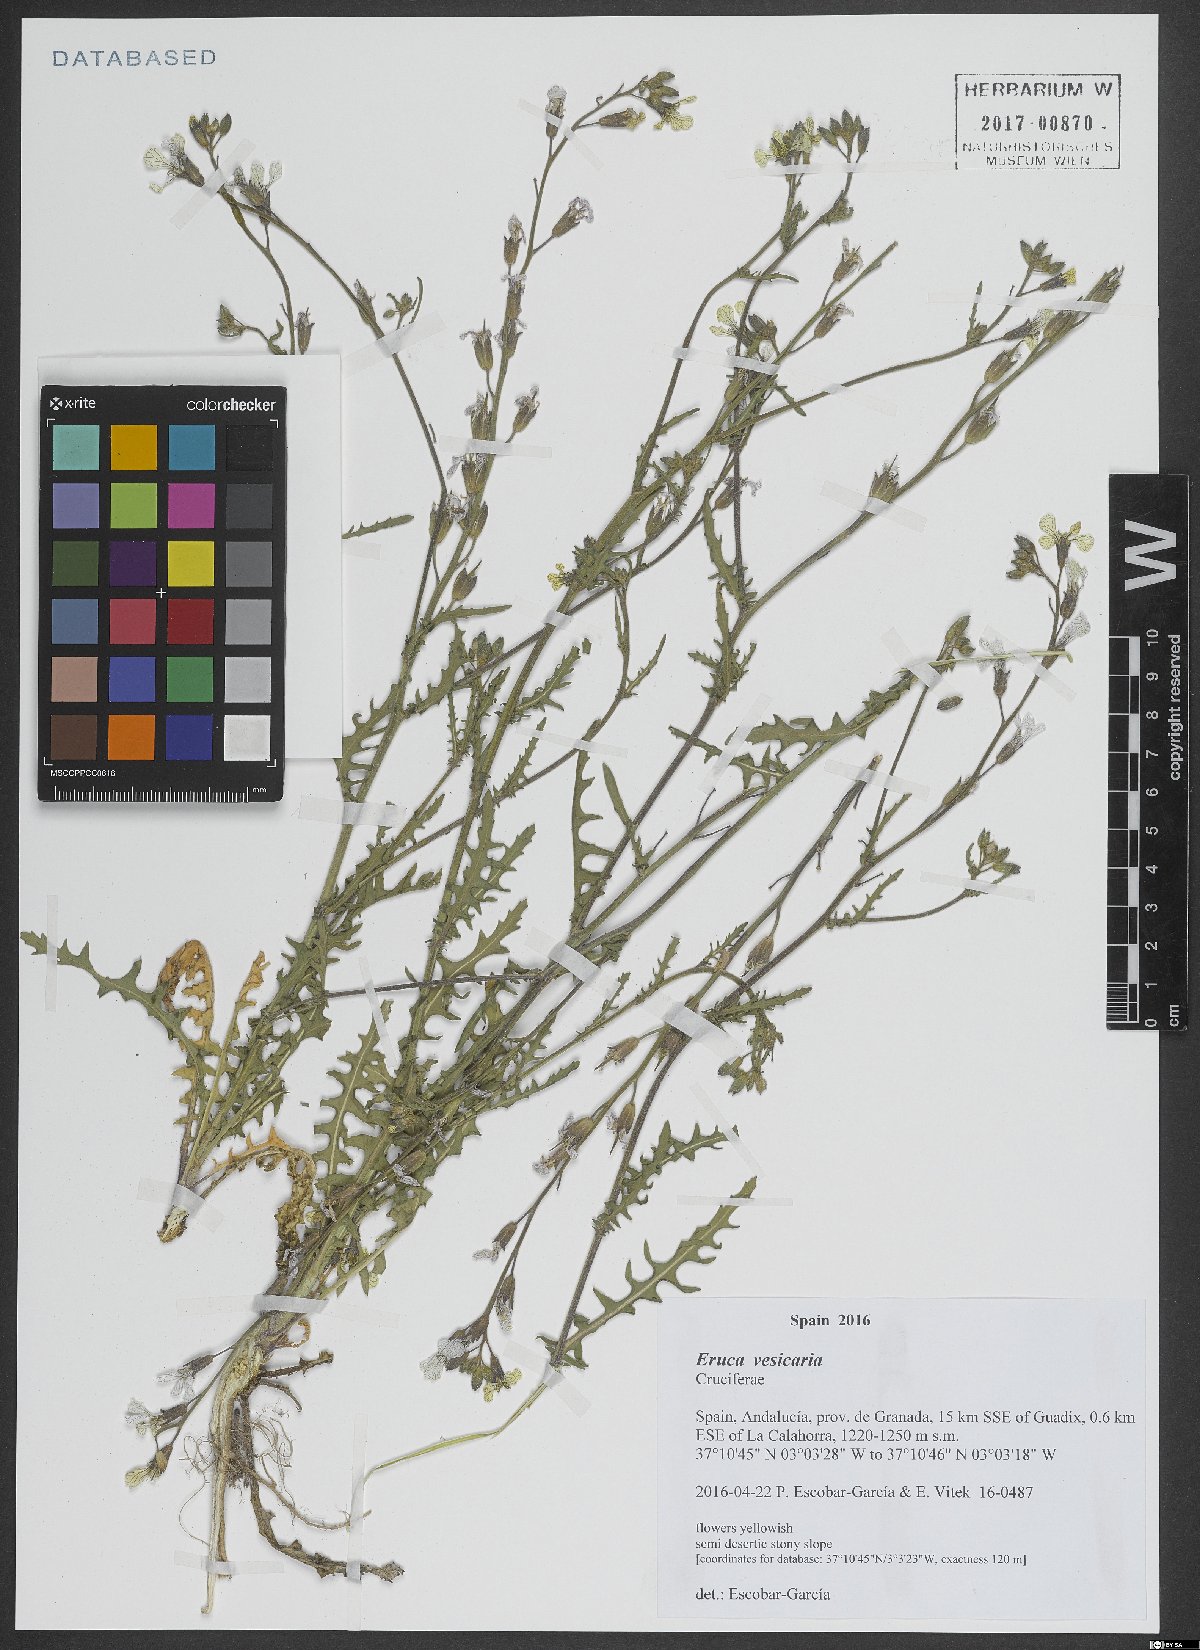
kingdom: Plantae
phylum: Tracheophyta
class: Magnoliopsida
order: Brassicales
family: Brassicaceae
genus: Eruca
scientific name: Eruca vesicaria
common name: Garden rocket
